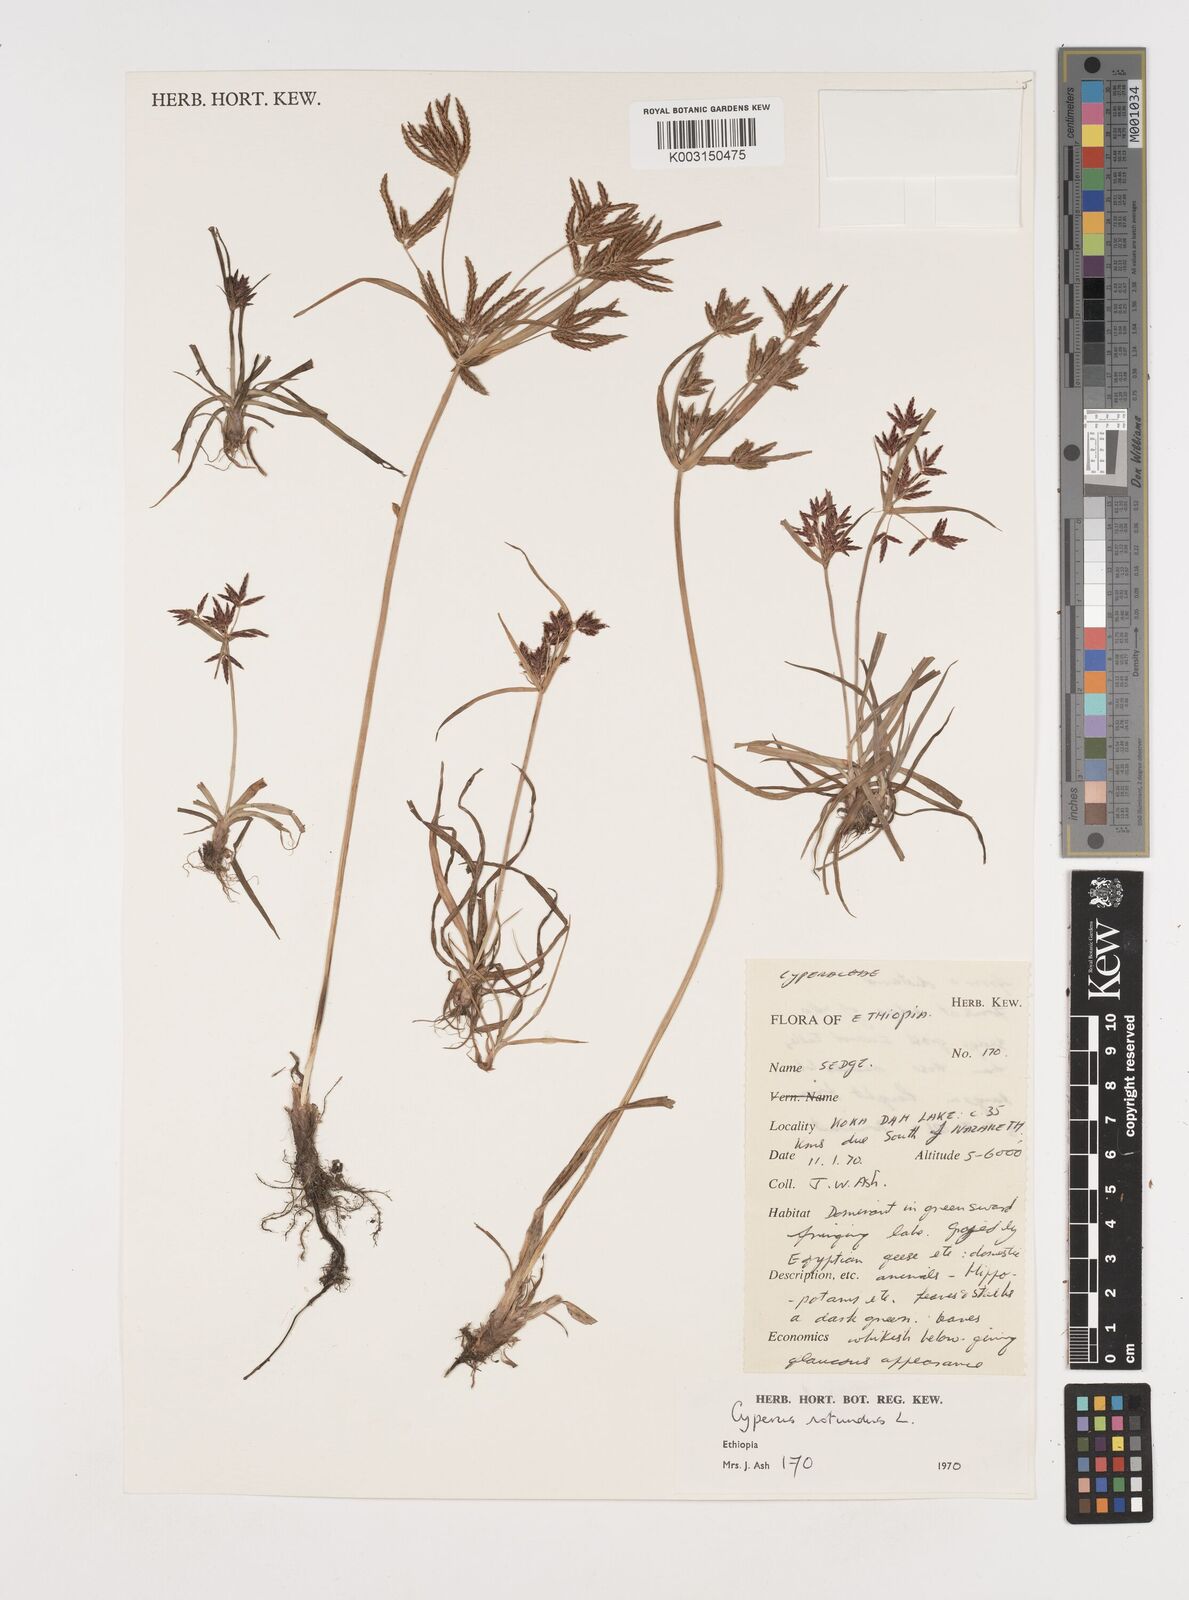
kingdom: Plantae
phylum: Tracheophyta
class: Liliopsida
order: Poales
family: Cyperaceae
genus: Cyperus
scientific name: Cyperus rotundus
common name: Nutgrass
